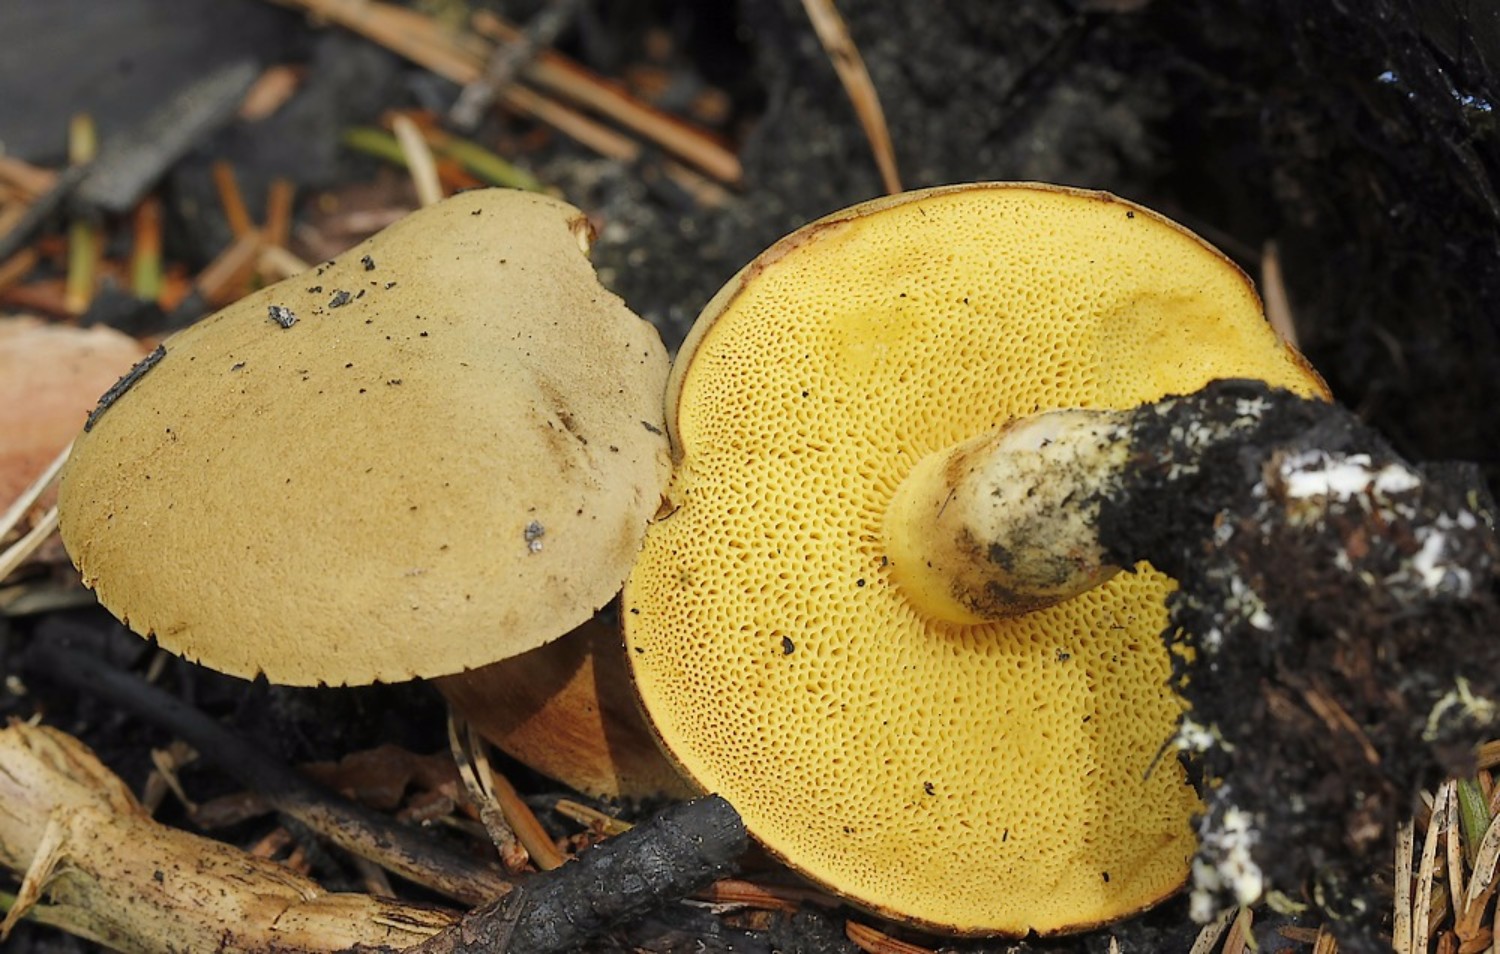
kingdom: Fungi
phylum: Basidiomycota
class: Agaricomycetes
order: Boletales
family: Boletaceae
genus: Xerocomus
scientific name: Xerocomus ferrugineus
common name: vaskeskinds-rørhat
